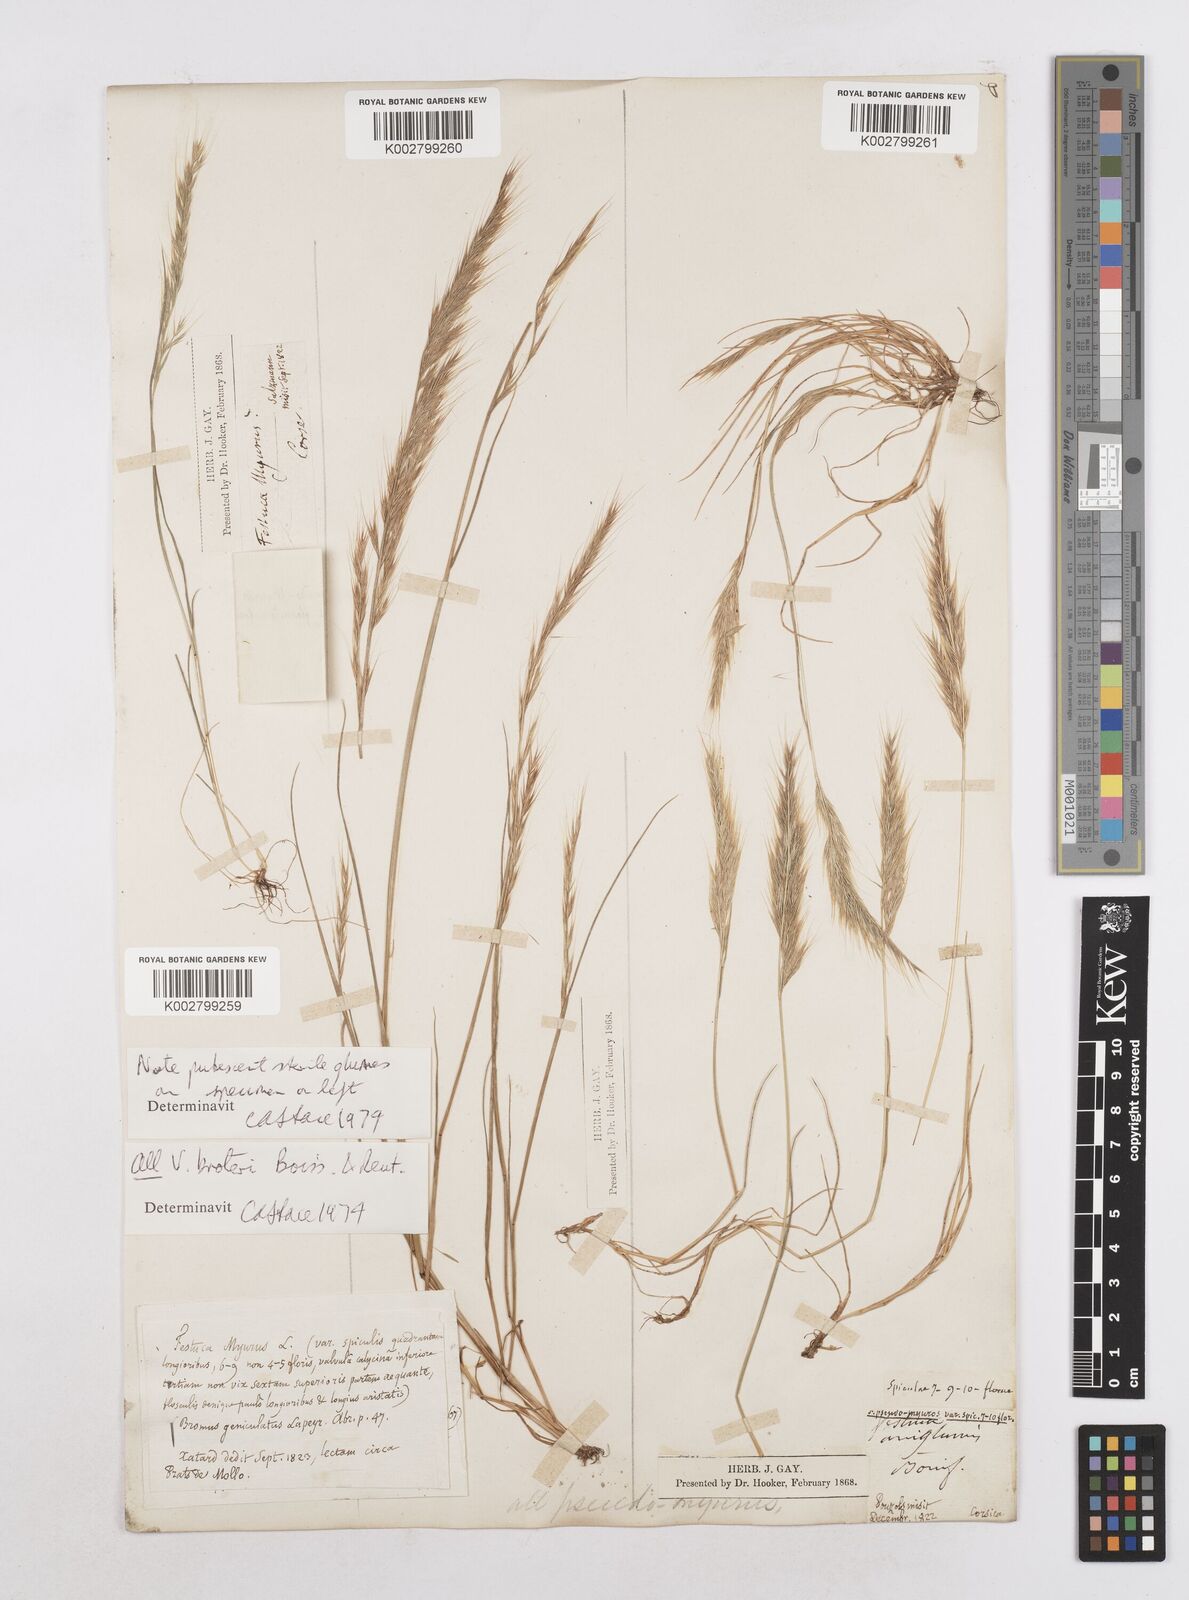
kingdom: Plantae
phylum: Tracheophyta
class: Liliopsida
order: Poales
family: Poaceae
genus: Festuca
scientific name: Festuca muralis
